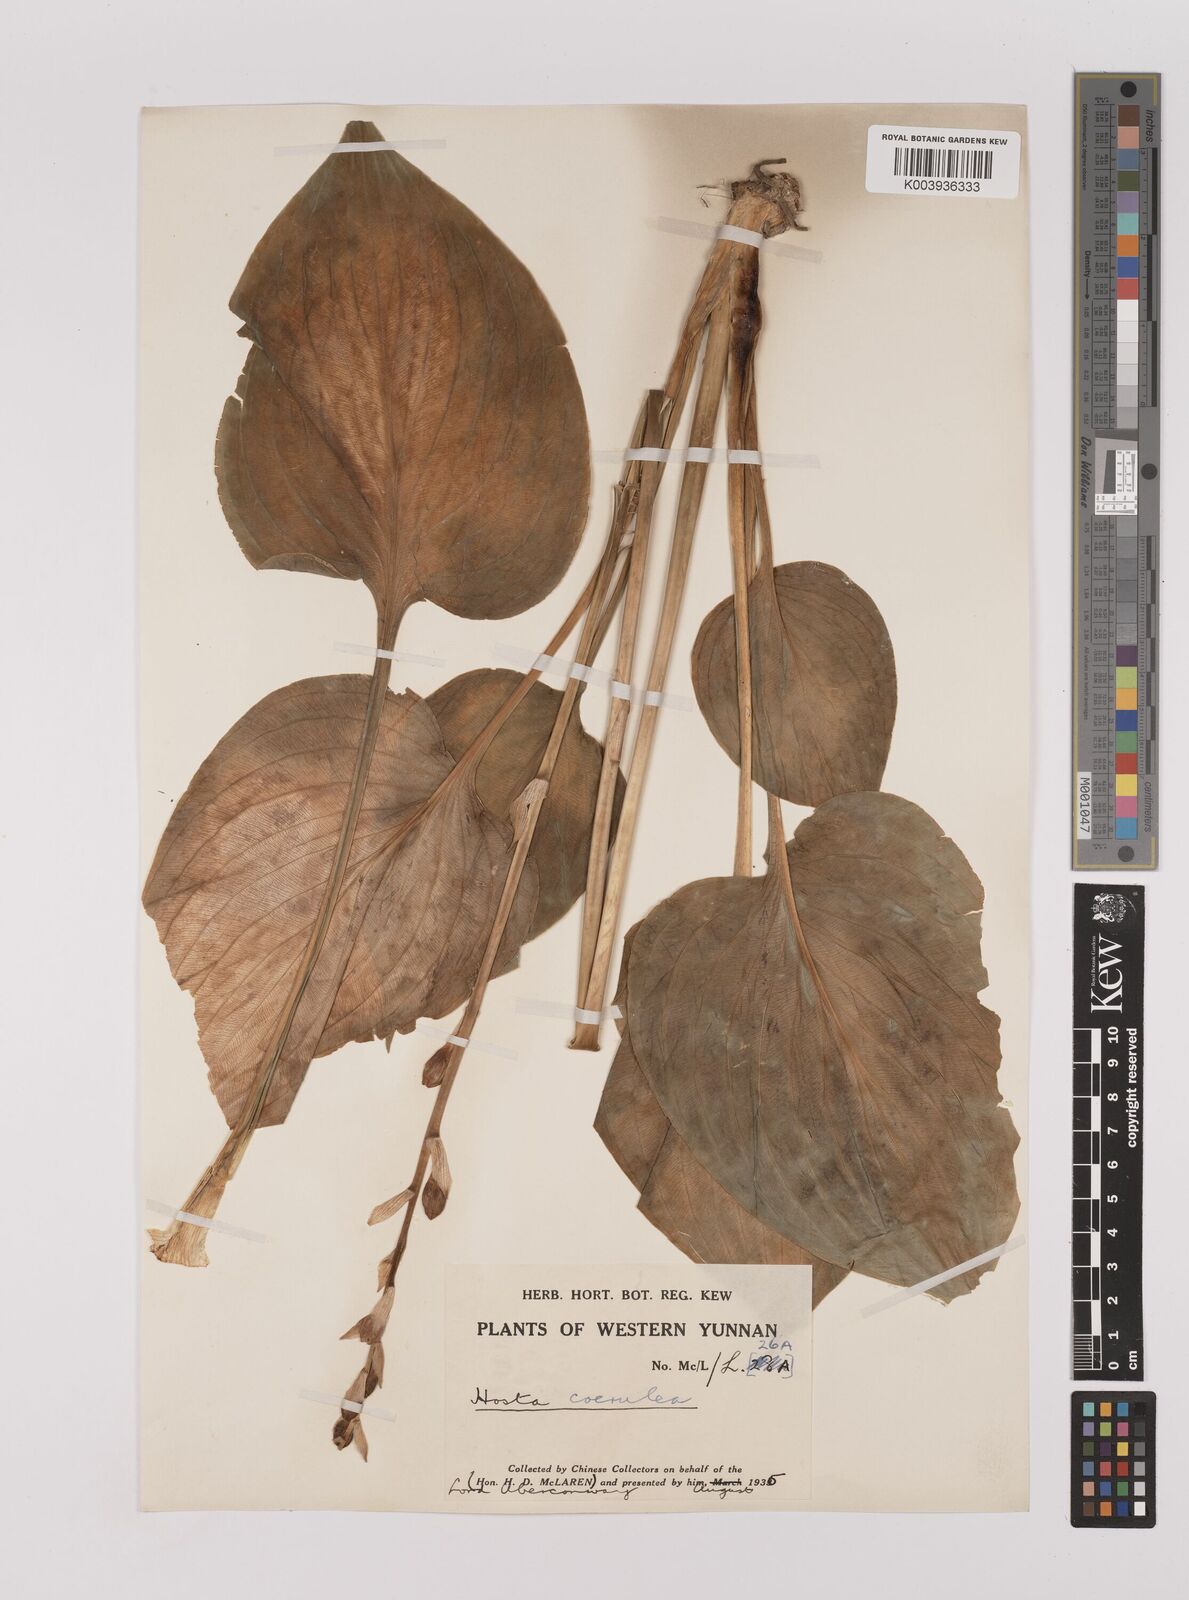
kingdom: Plantae
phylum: Tracheophyta
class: Liliopsida
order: Asparagales
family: Asparagaceae
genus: Hosta
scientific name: Hosta ventricosa
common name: Blue plantain-lily
